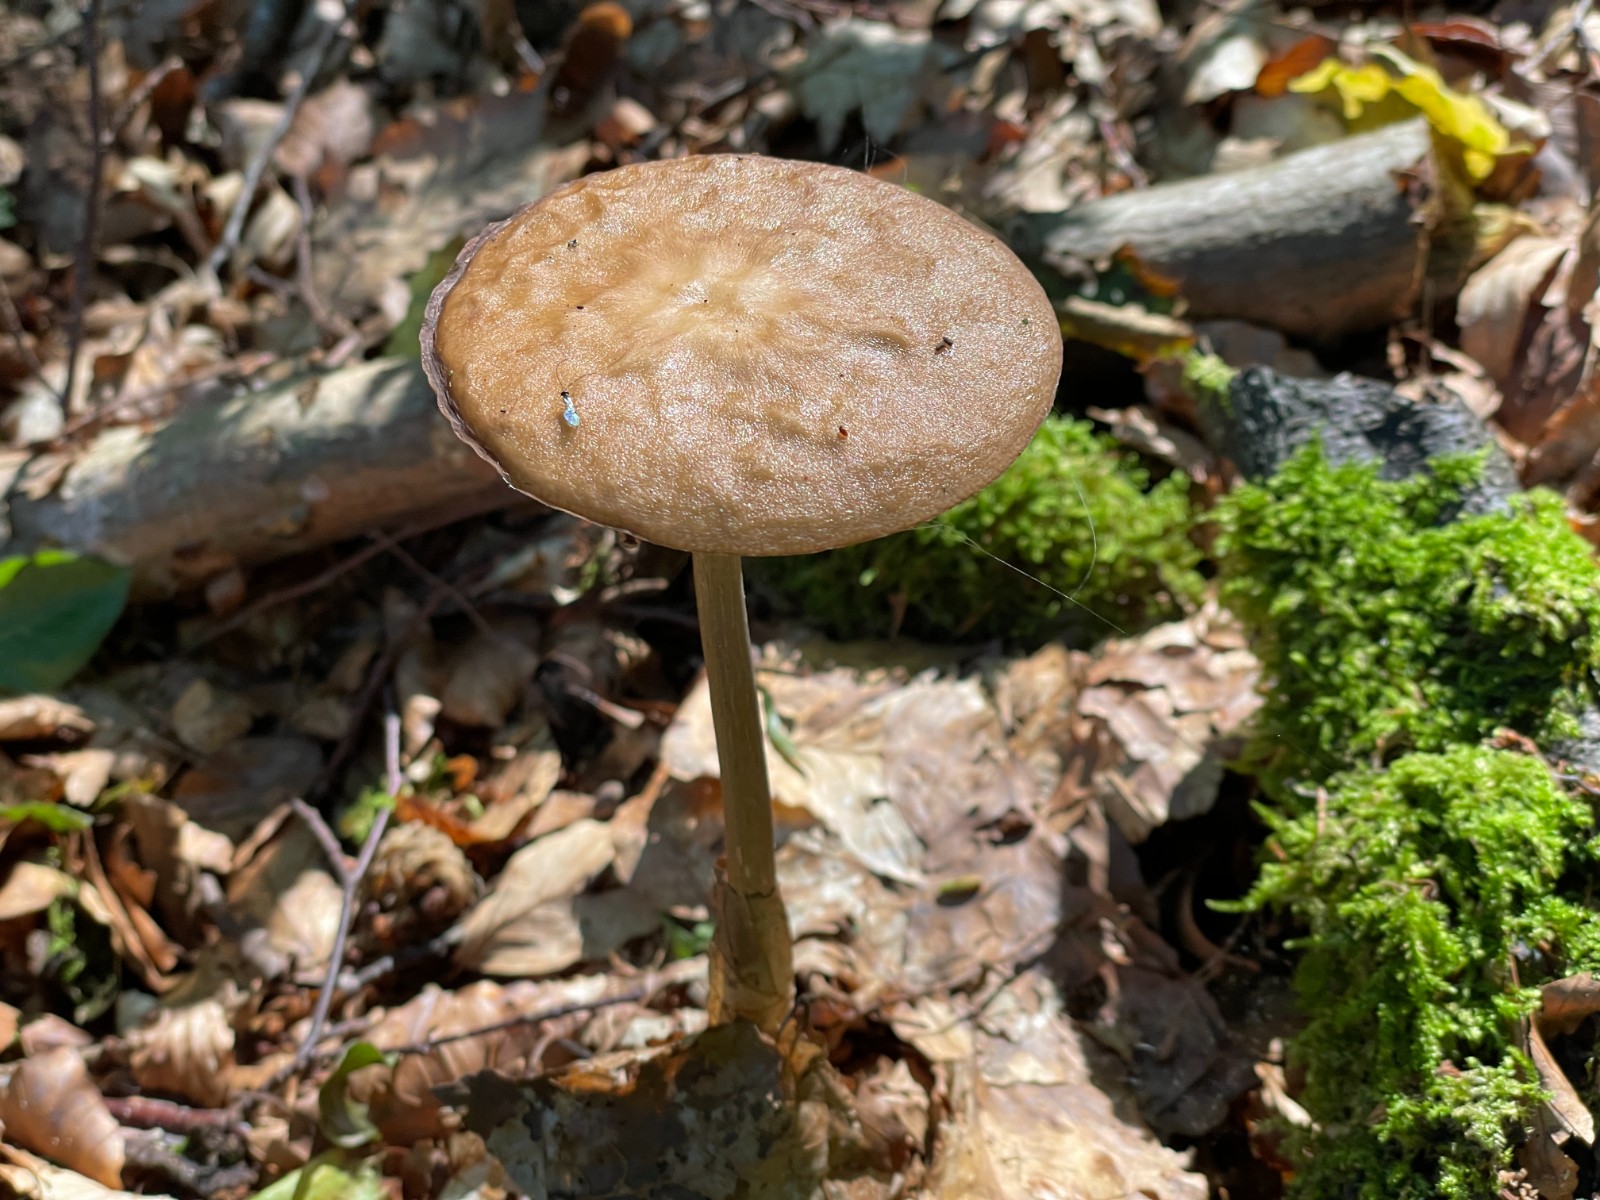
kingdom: Fungi
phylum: Basidiomycota
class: Agaricomycetes
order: Agaricales
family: Physalacriaceae
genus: Hymenopellis
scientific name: Hymenopellis radicata
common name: almindelig pælerodshat
